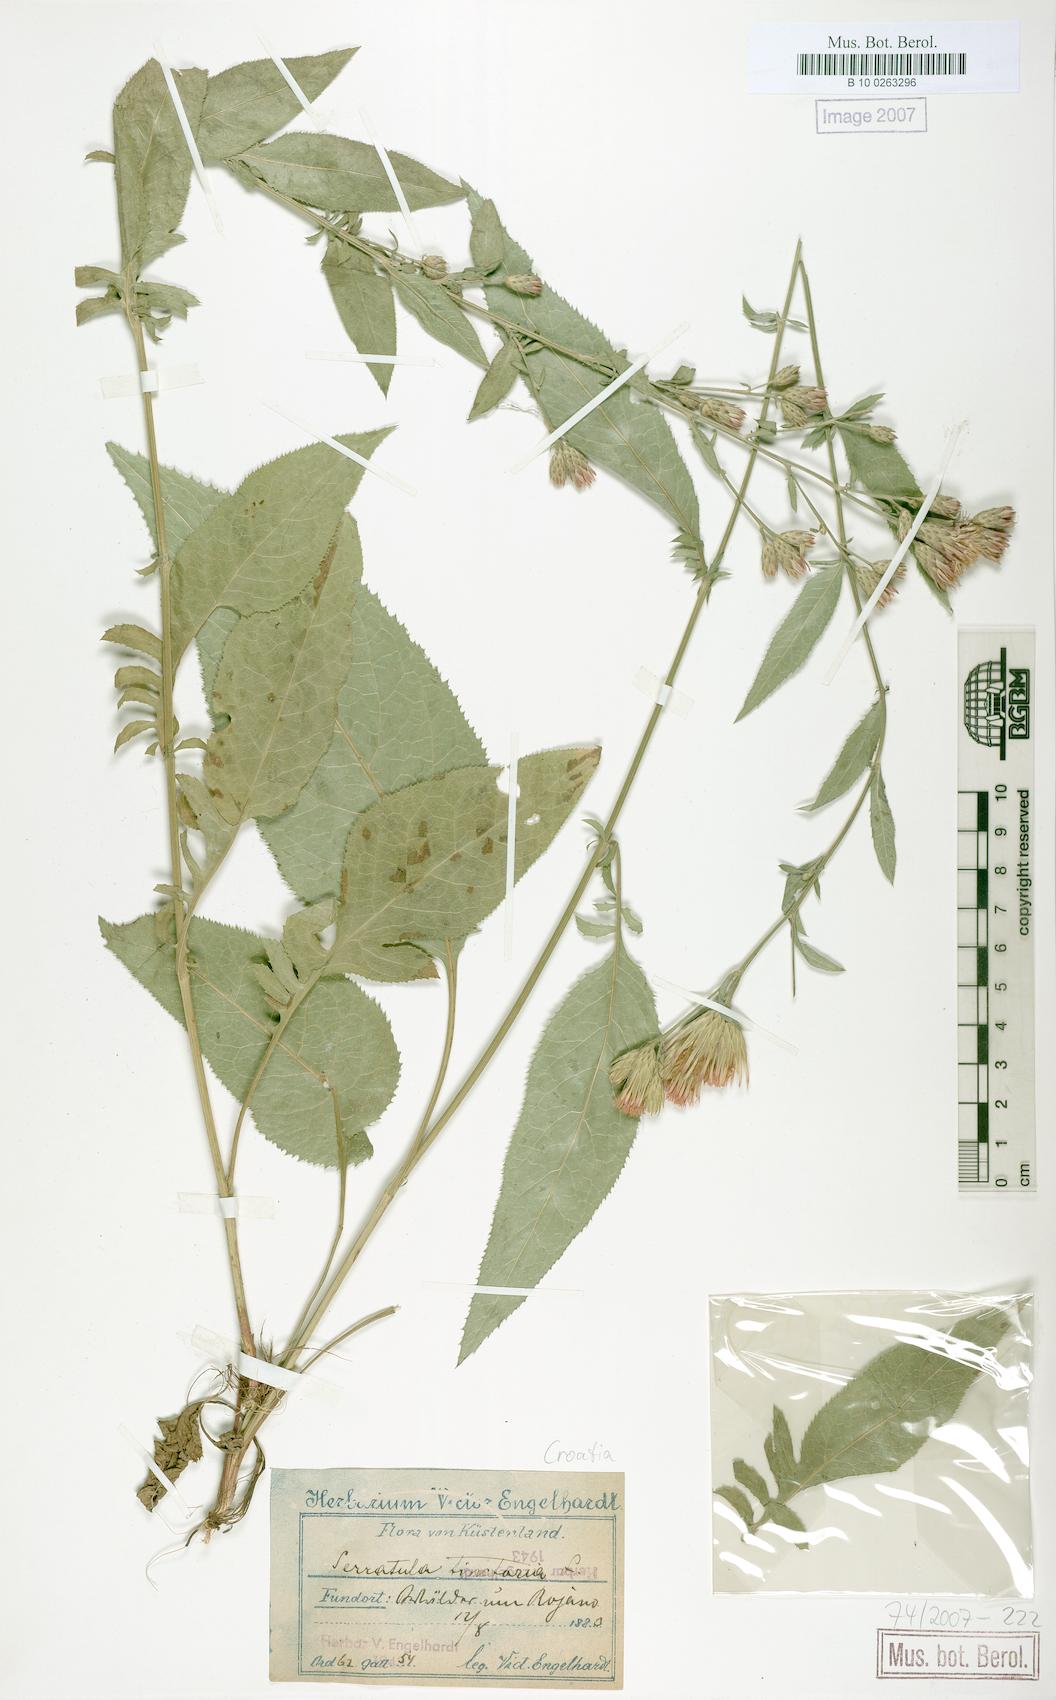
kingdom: Plantae
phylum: Tracheophyta
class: Magnoliopsida
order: Asterales
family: Asteraceae
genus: Serratula
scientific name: Serratula tinctoria
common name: Saw-wort
